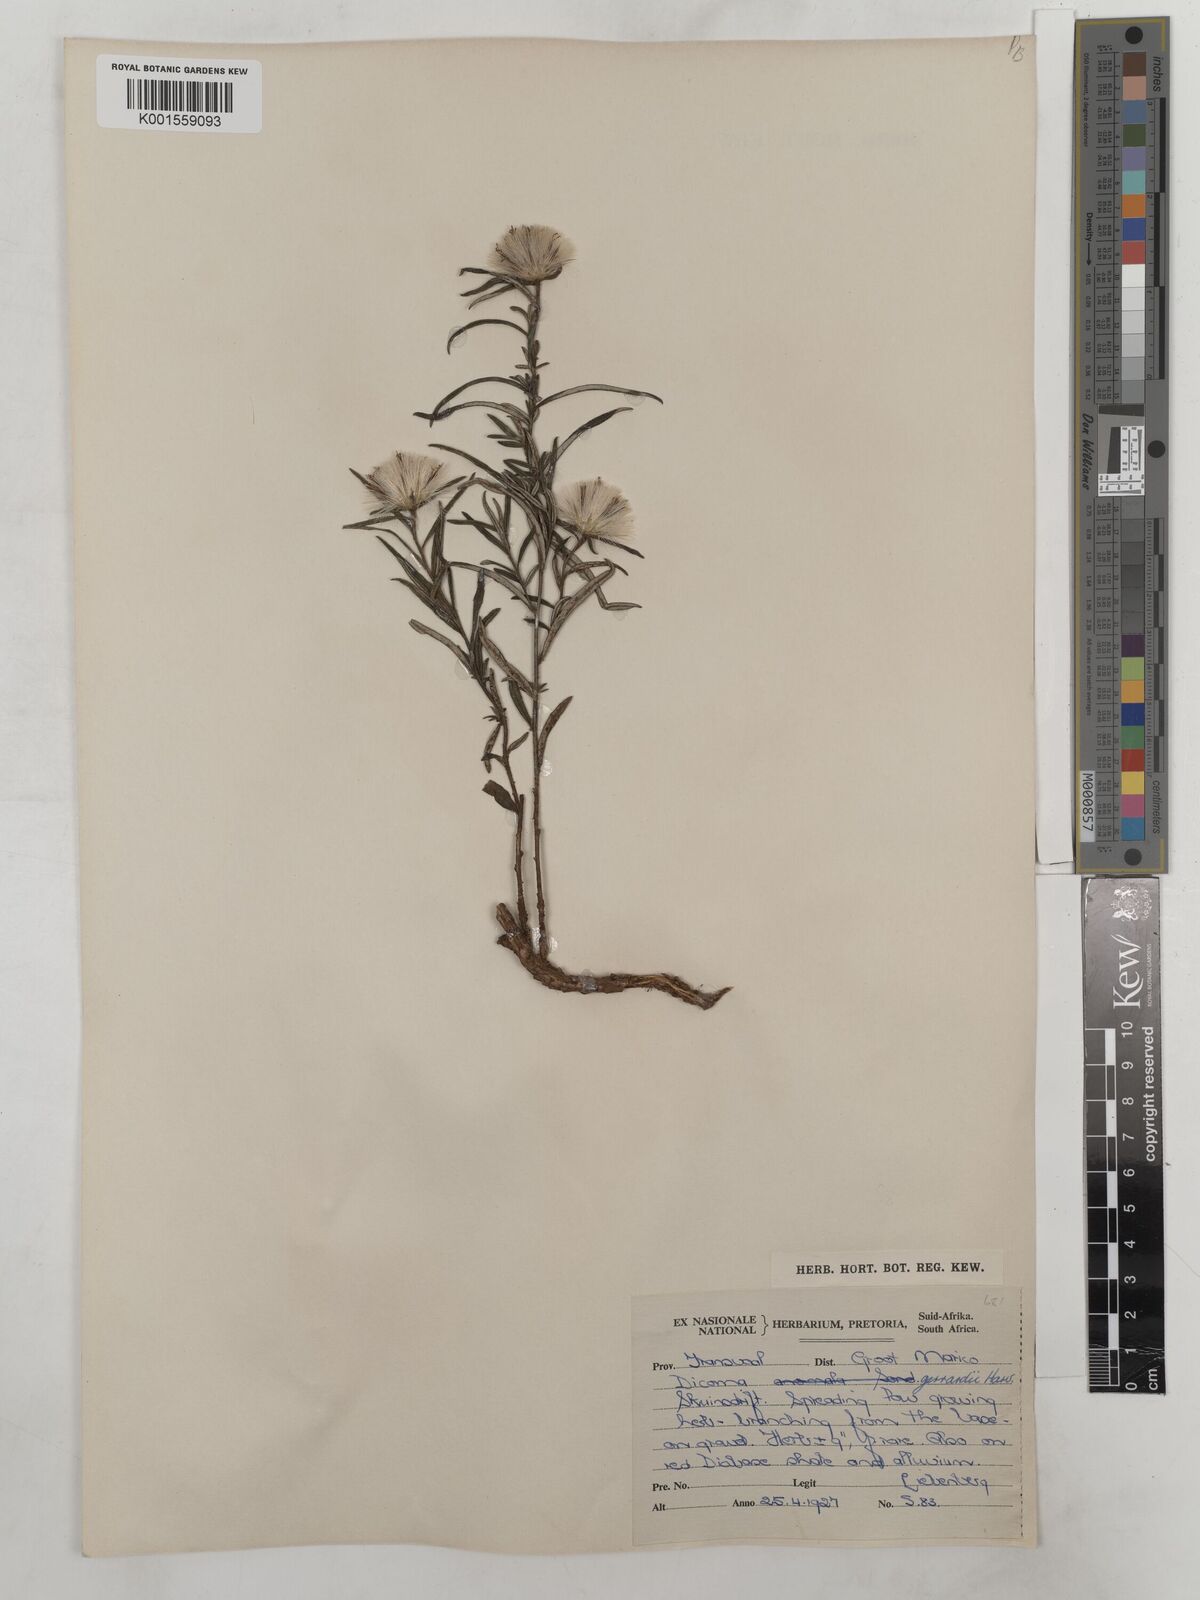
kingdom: Plantae
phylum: Tracheophyta
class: Magnoliopsida
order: Asterales
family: Asteraceae
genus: Dicoma
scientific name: Dicoma anomala
